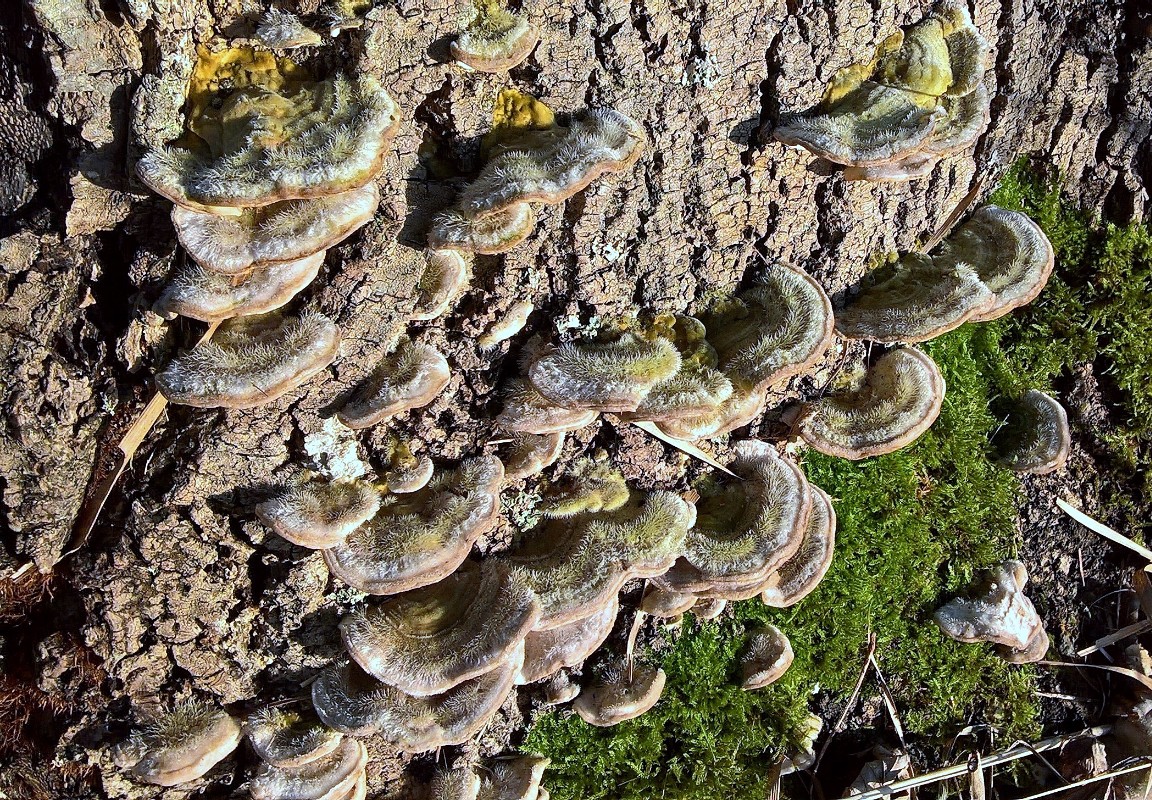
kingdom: Fungi
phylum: Basidiomycota
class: Agaricomycetes
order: Polyporales
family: Polyporaceae
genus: Trametes
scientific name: Trametes hirsuta
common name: håret læderporesvamp
